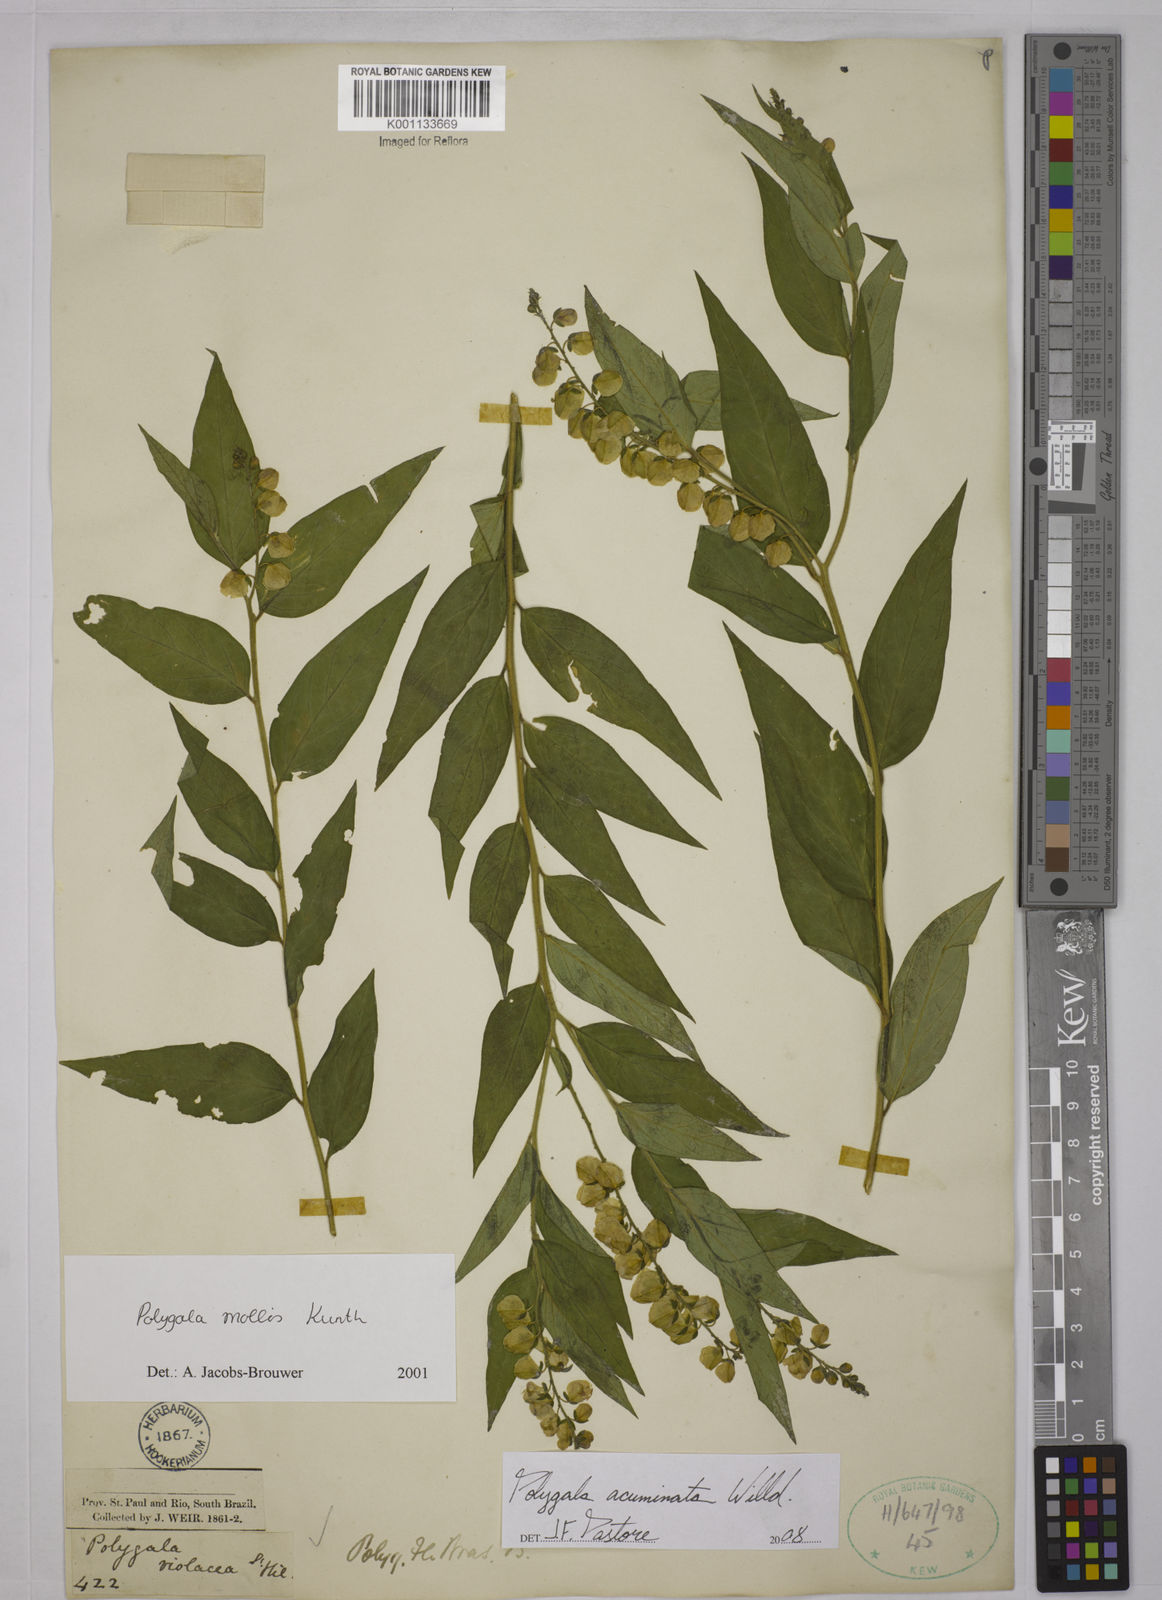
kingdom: Plantae
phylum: Tracheophyta
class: Magnoliopsida
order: Fabales
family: Polygalaceae
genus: Asemeia
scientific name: Asemeia acuminata
